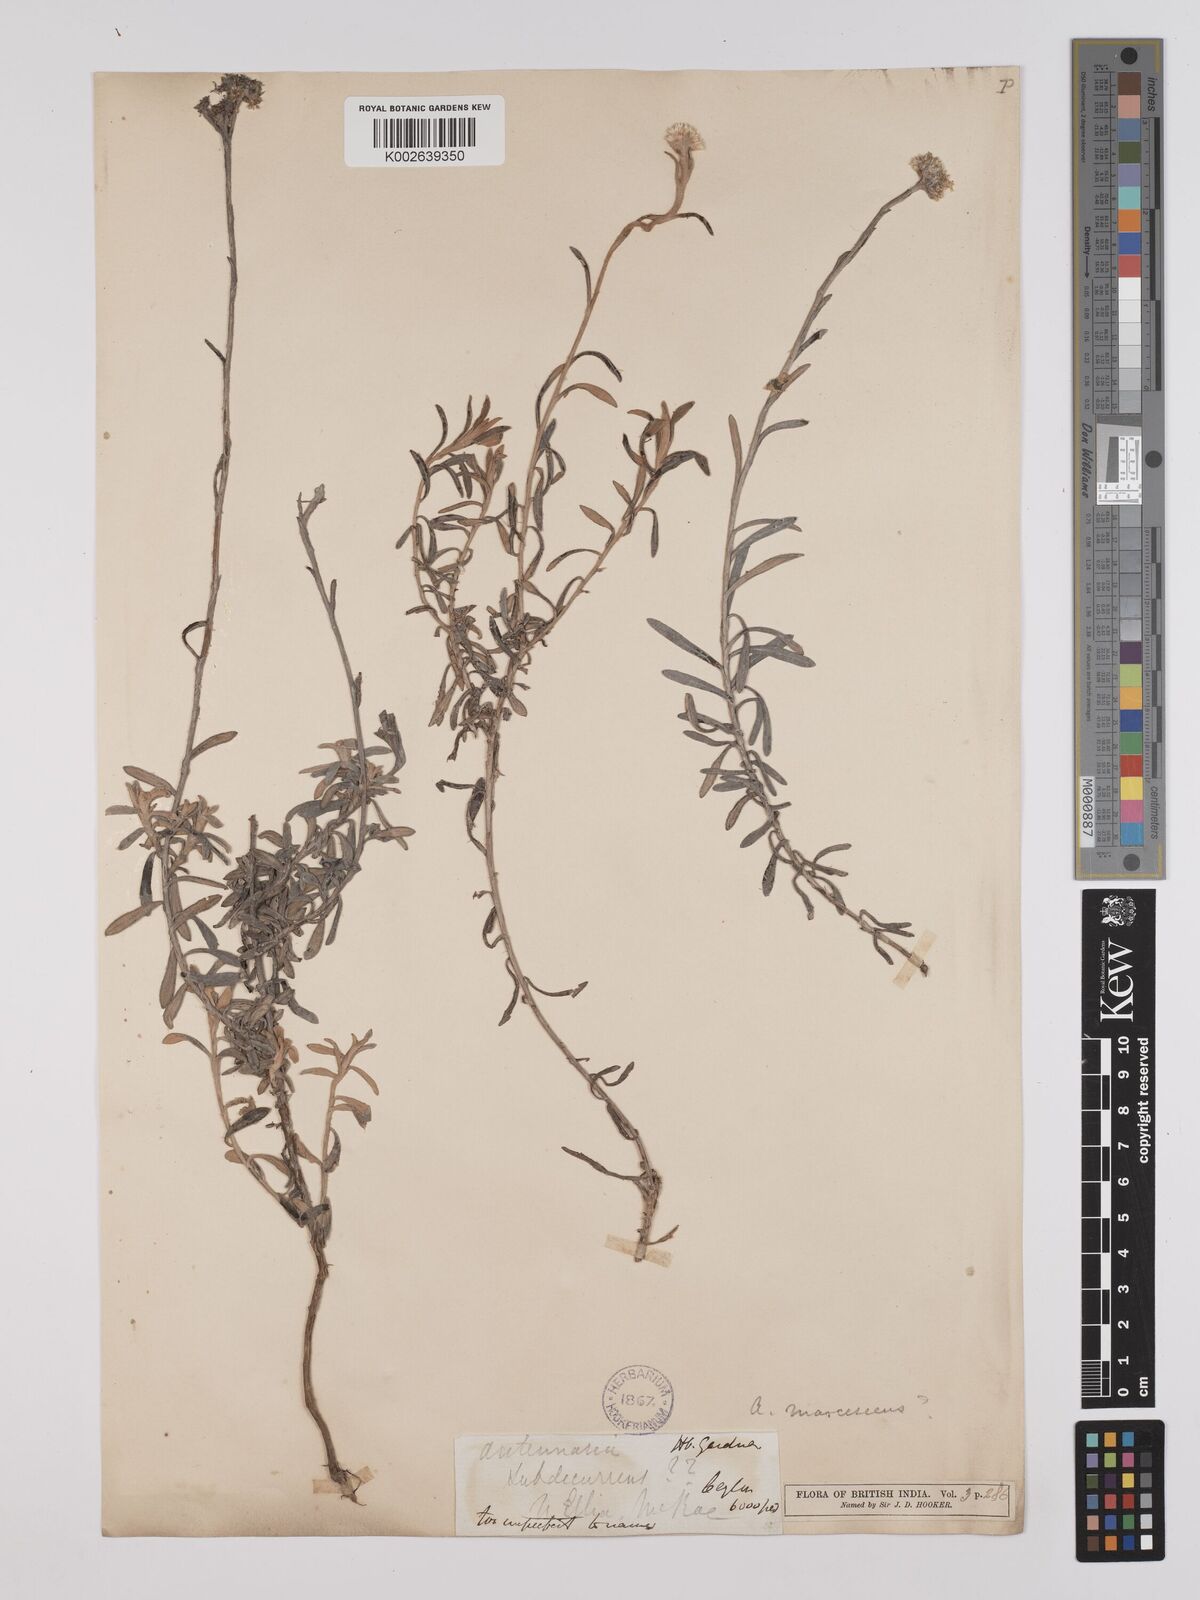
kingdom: Plantae
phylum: Tracheophyta
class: Magnoliopsida
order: Asterales
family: Asteraceae
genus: Anaphalis
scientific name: Anaphalis marcescens
